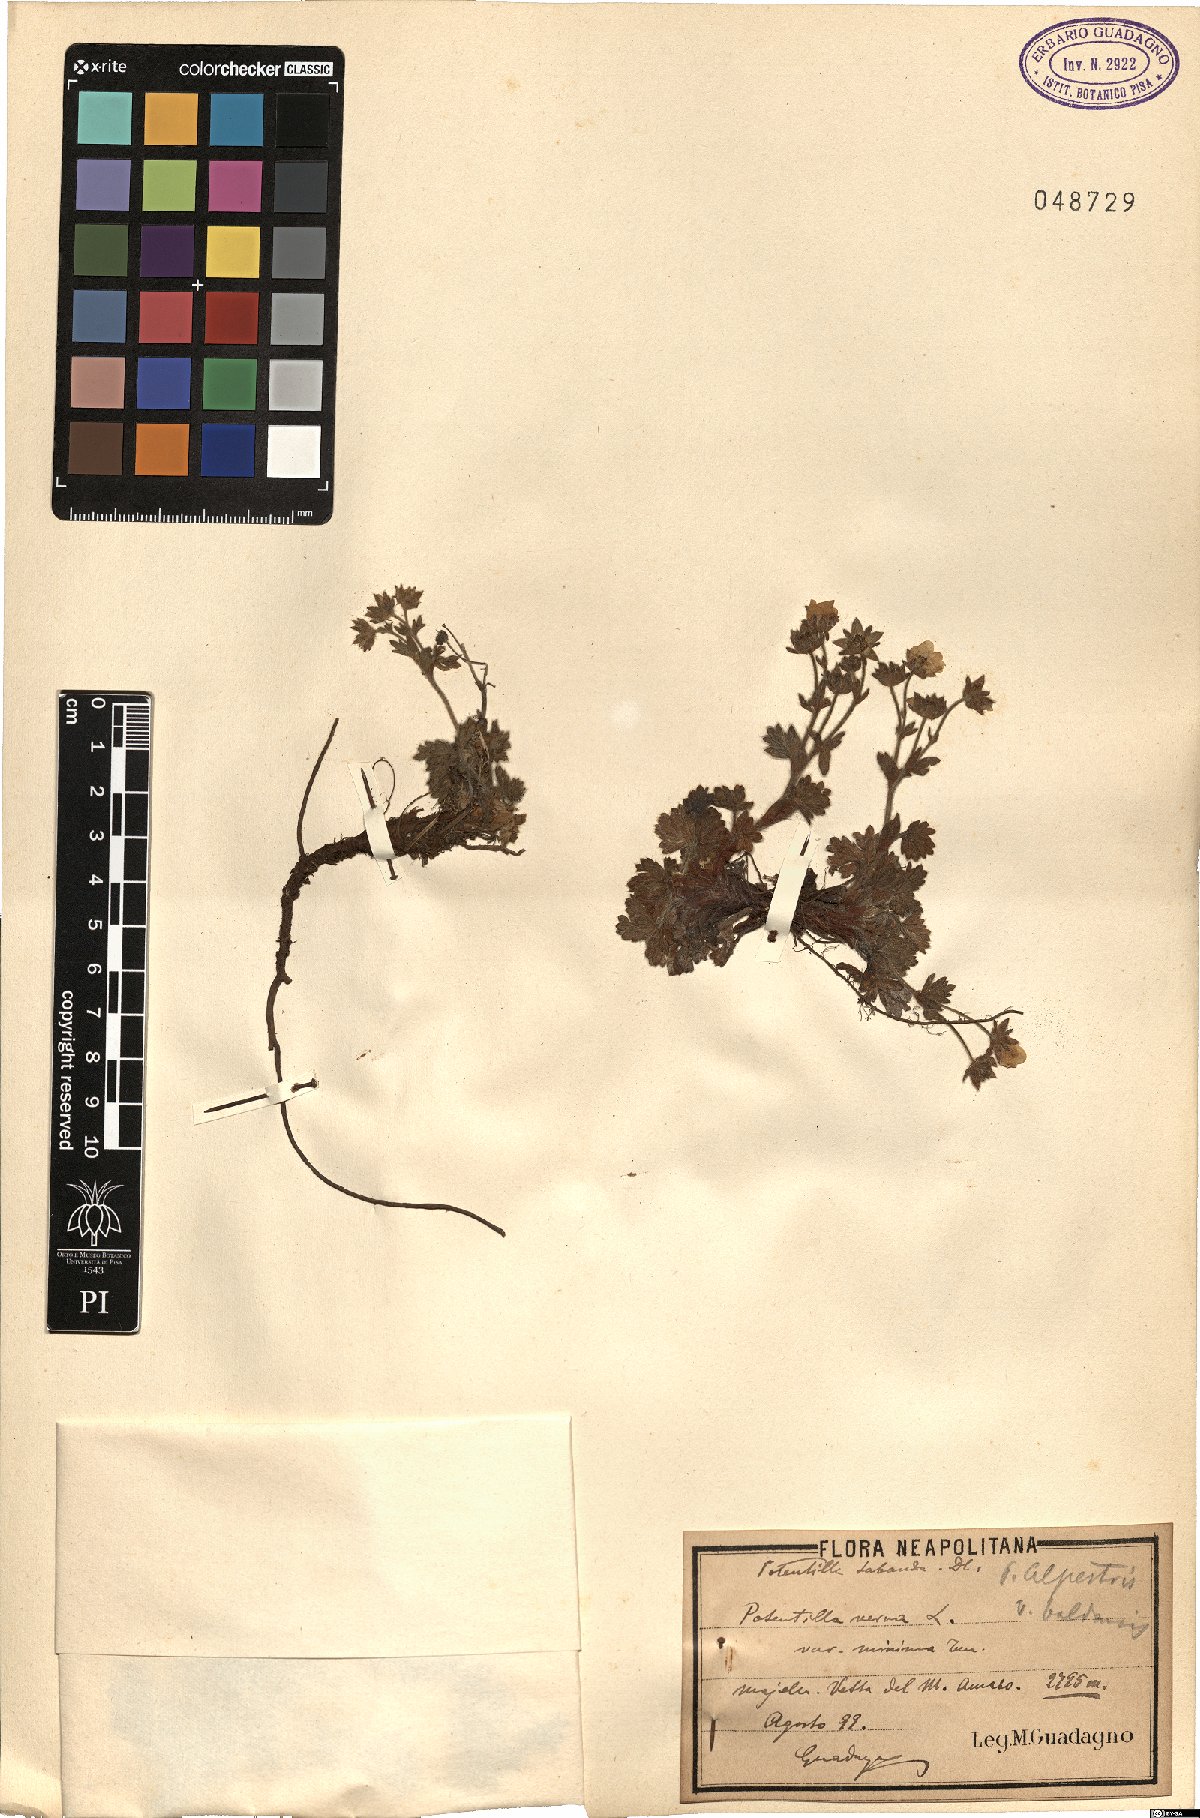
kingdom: Plantae
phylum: Tracheophyta
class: Magnoliopsida
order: Rosales
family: Rosaceae
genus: Potentilla
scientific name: Potentilla crantzii
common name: Alpine cinquefoil
